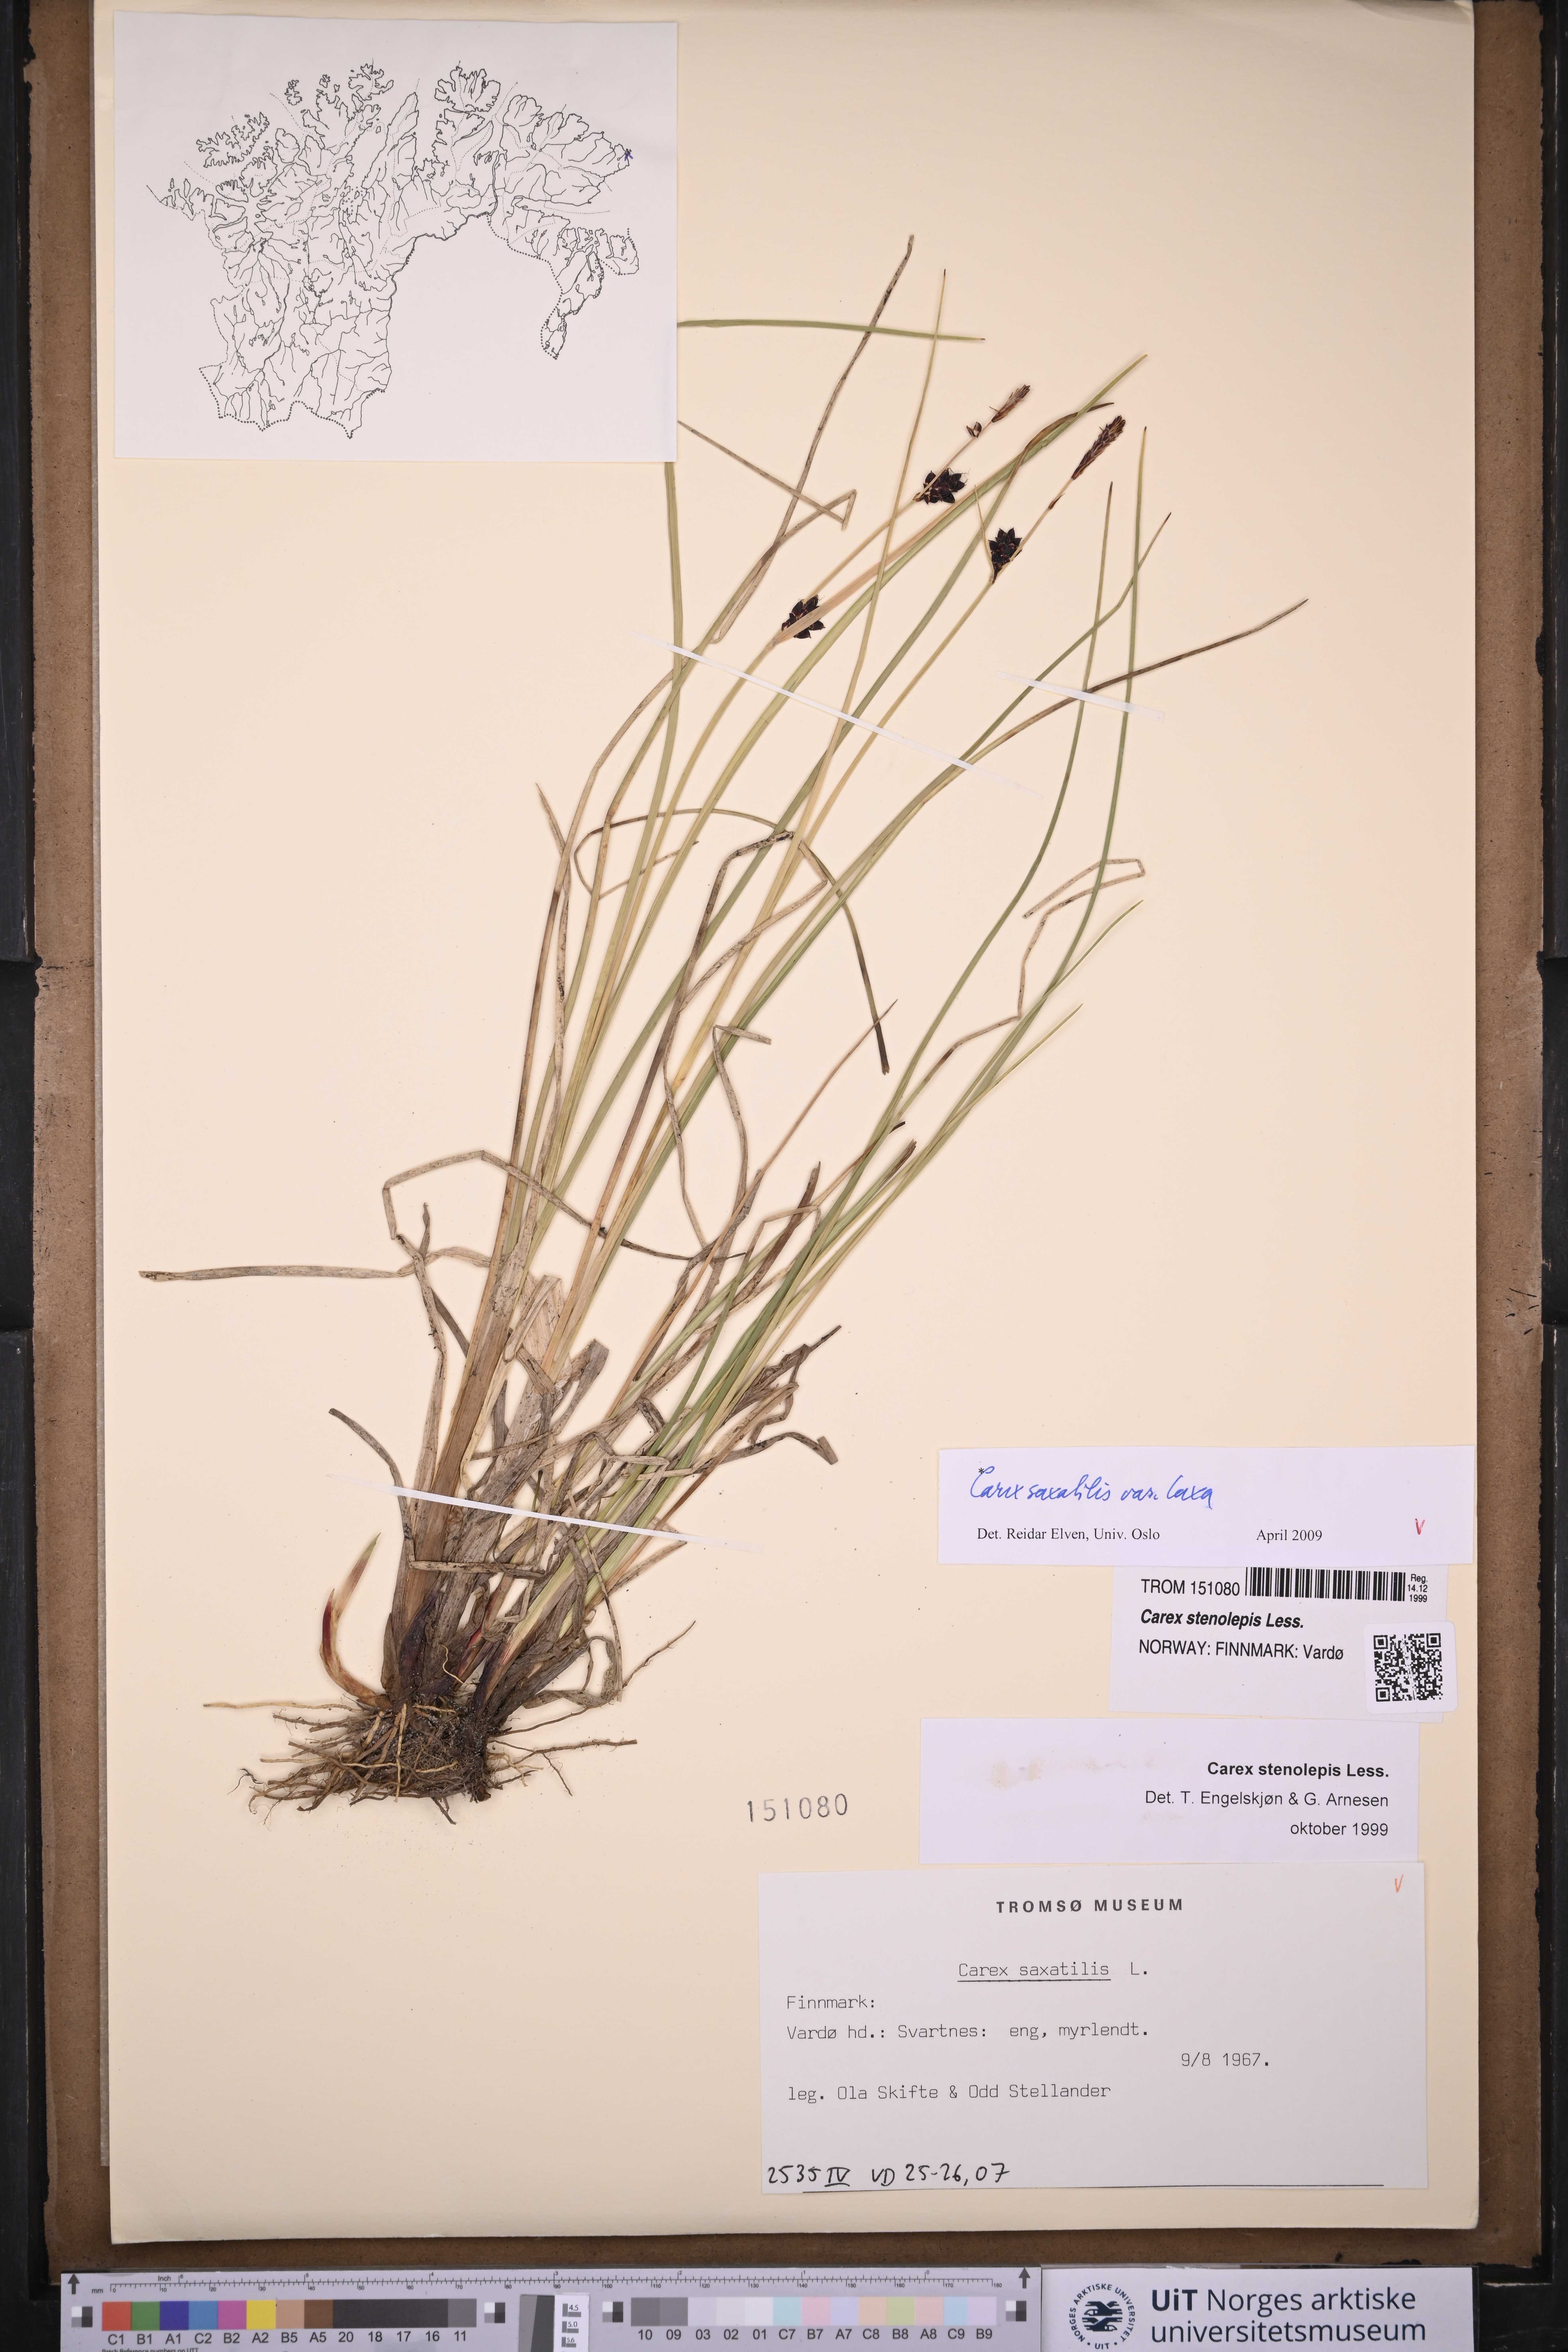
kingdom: Plantae
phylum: Tracheophyta
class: Liliopsida
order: Poales
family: Cyperaceae
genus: Carex
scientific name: Carex saxatilis
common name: Russet sedge
